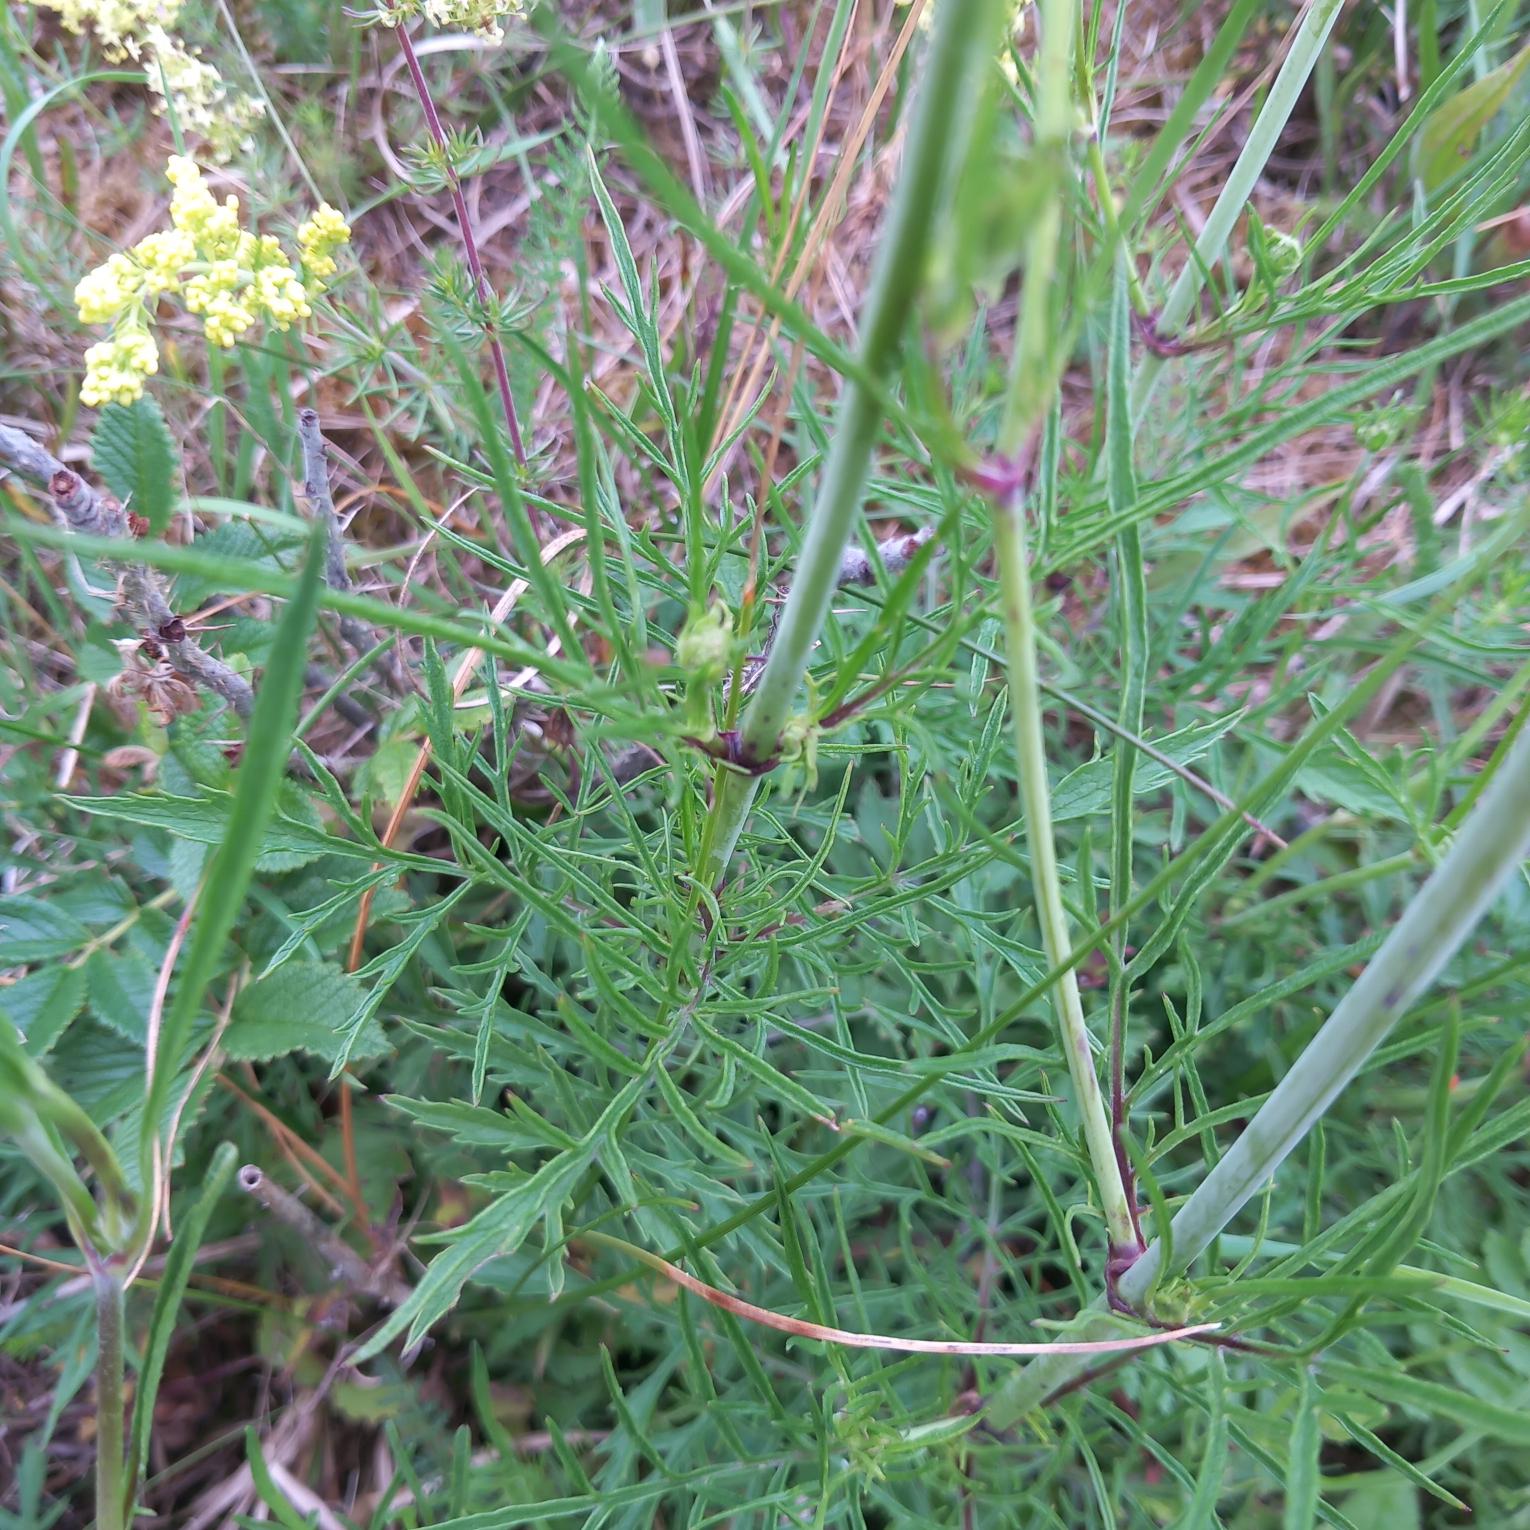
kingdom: Plantae
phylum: Tracheophyta
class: Magnoliopsida
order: Dipsacales
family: Caprifoliaceae
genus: Scabiosa
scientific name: Scabiosa columbaria
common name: Due-skabiose
